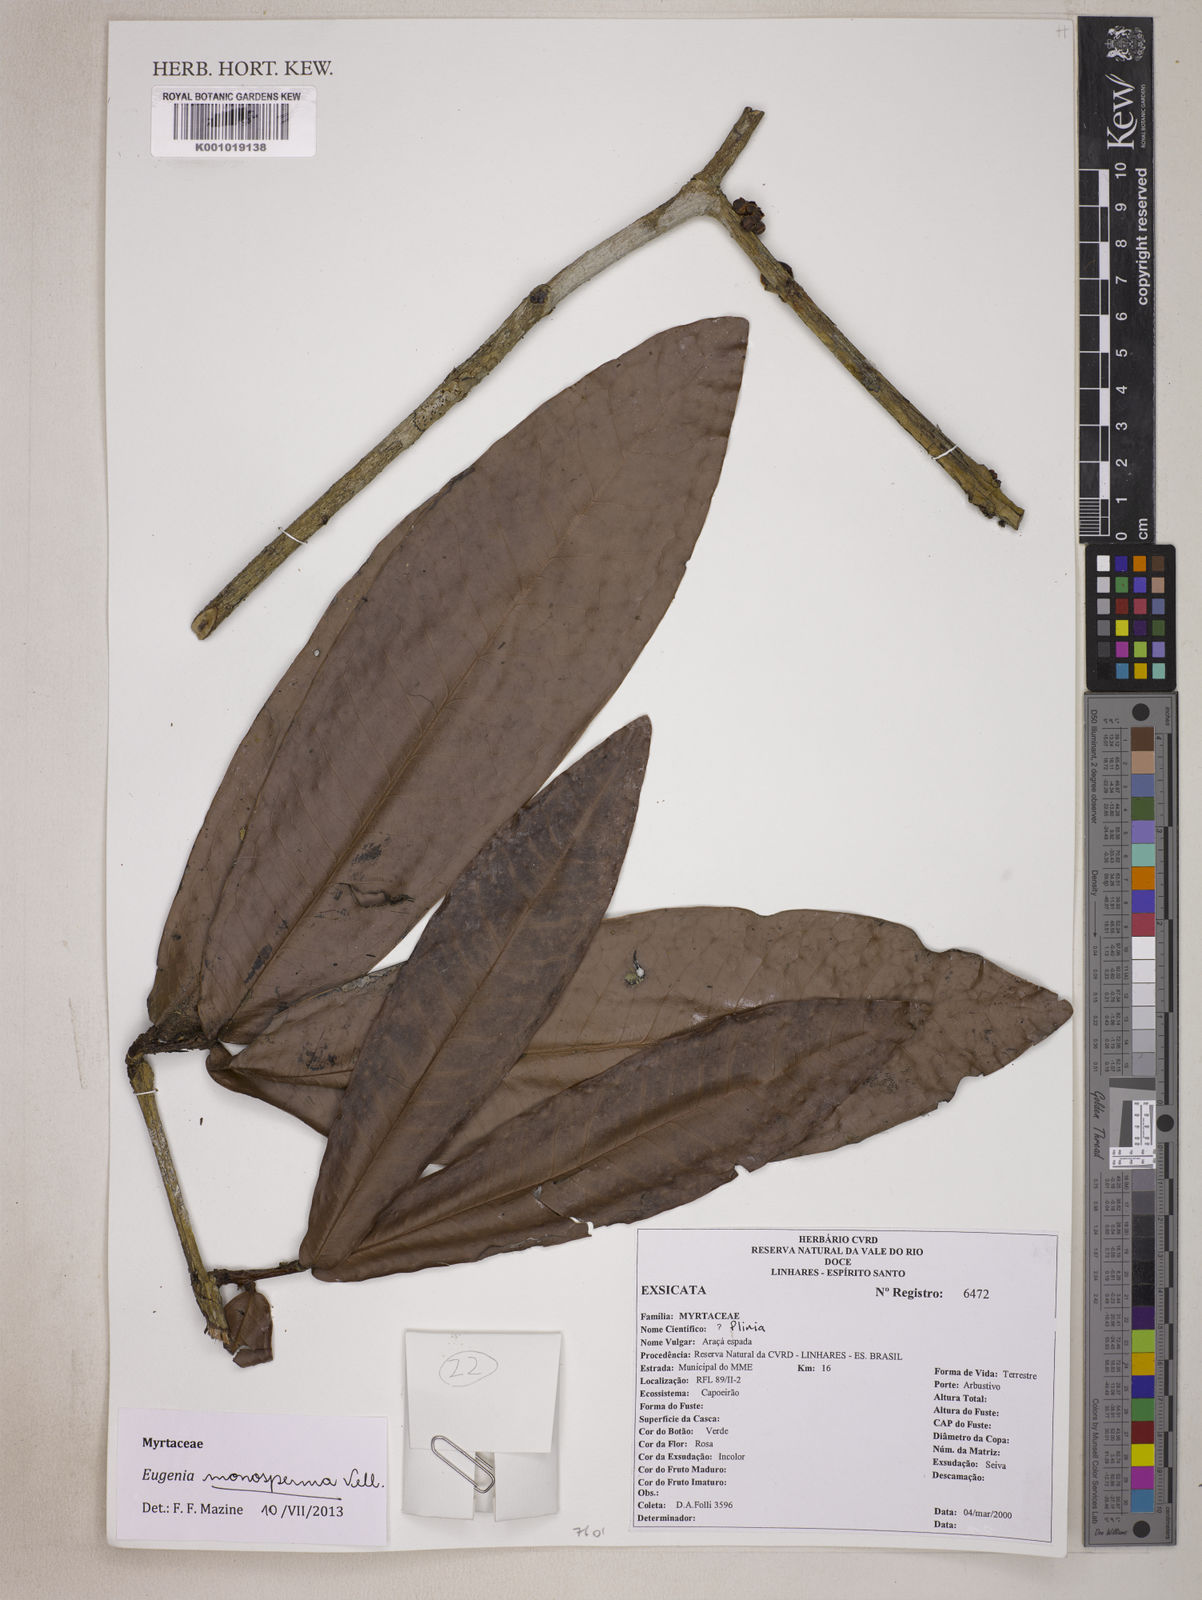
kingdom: Plantae
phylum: Tracheophyta
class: Magnoliopsida
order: Myrtales
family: Myrtaceae
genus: Eugenia
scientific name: Eugenia monosperma
